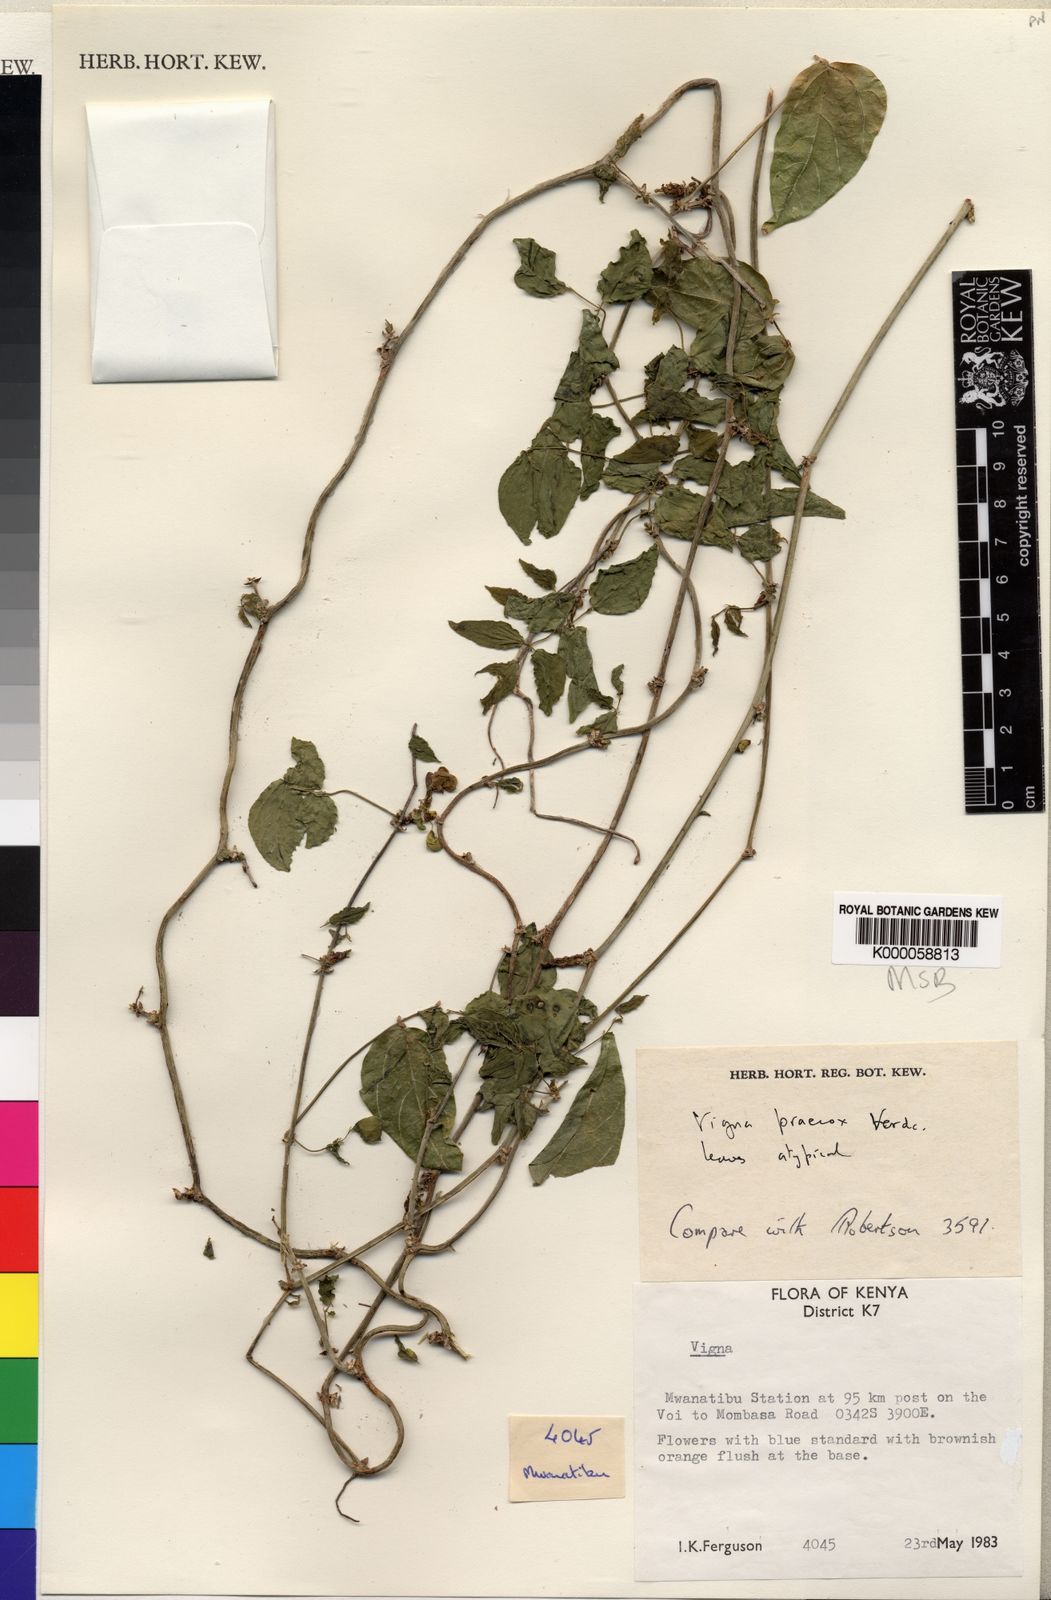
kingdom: Plantae
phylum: Tracheophyta
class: Magnoliopsida
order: Fabales
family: Fabaceae
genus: Wajira
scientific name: Wajira praecox
